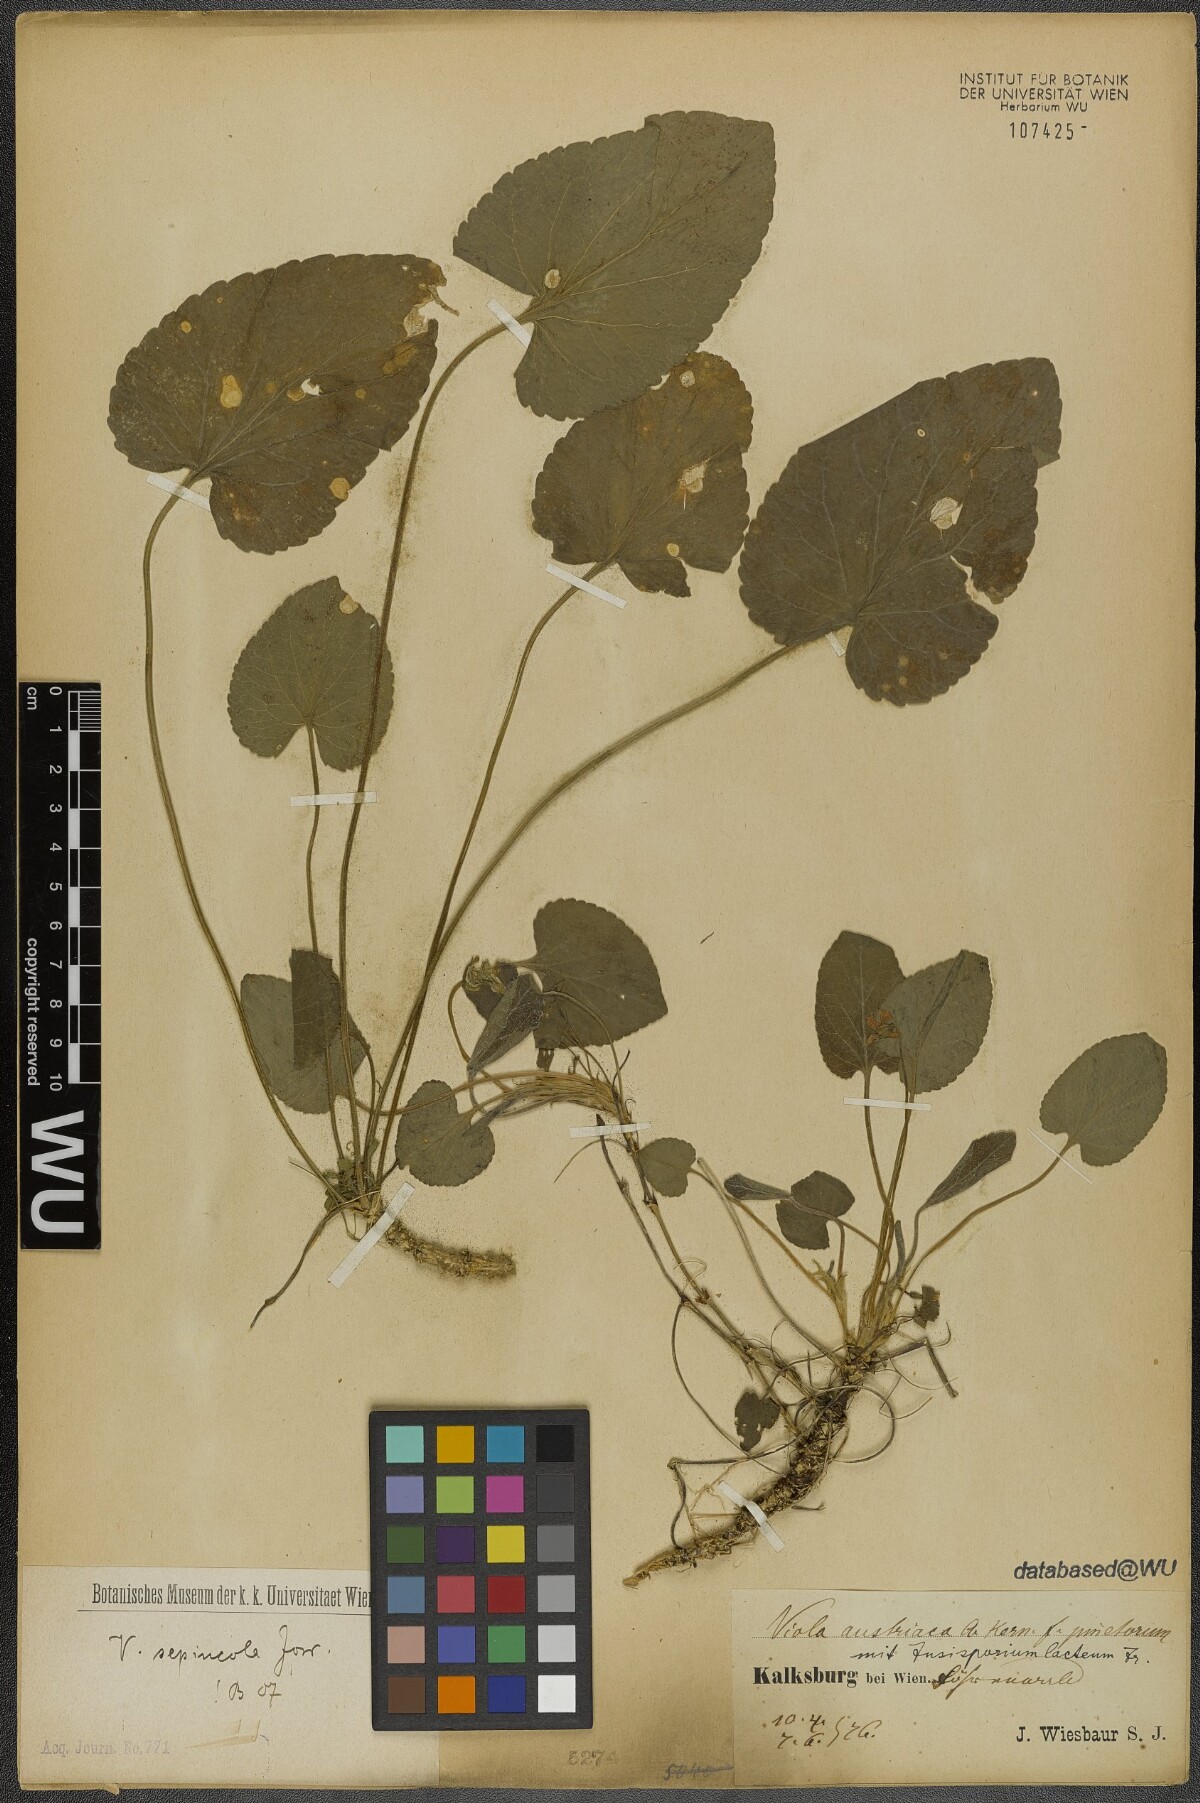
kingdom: Plantae
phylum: Tracheophyta
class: Magnoliopsida
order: Malpighiales
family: Violaceae
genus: Viola
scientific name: Viola suavis
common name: Russian violet
